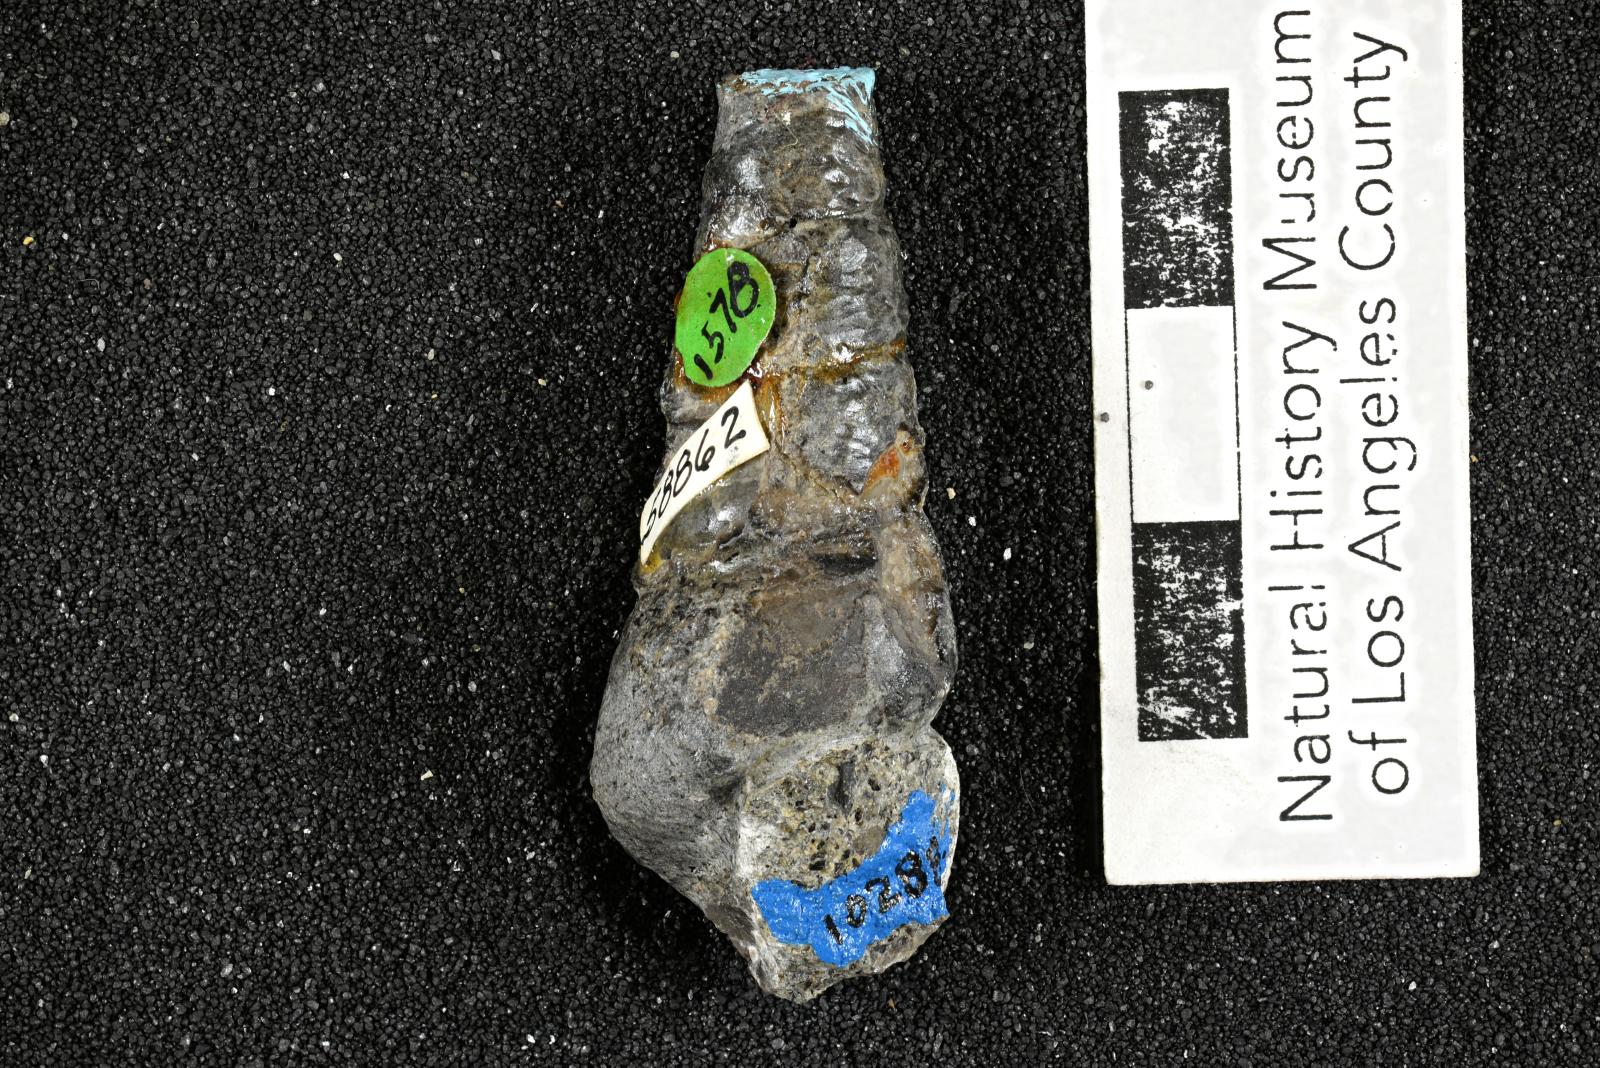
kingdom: Animalia
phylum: Mollusca
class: Gastropoda
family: Turritellidae
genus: Turritella
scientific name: Turritella peninsularis
